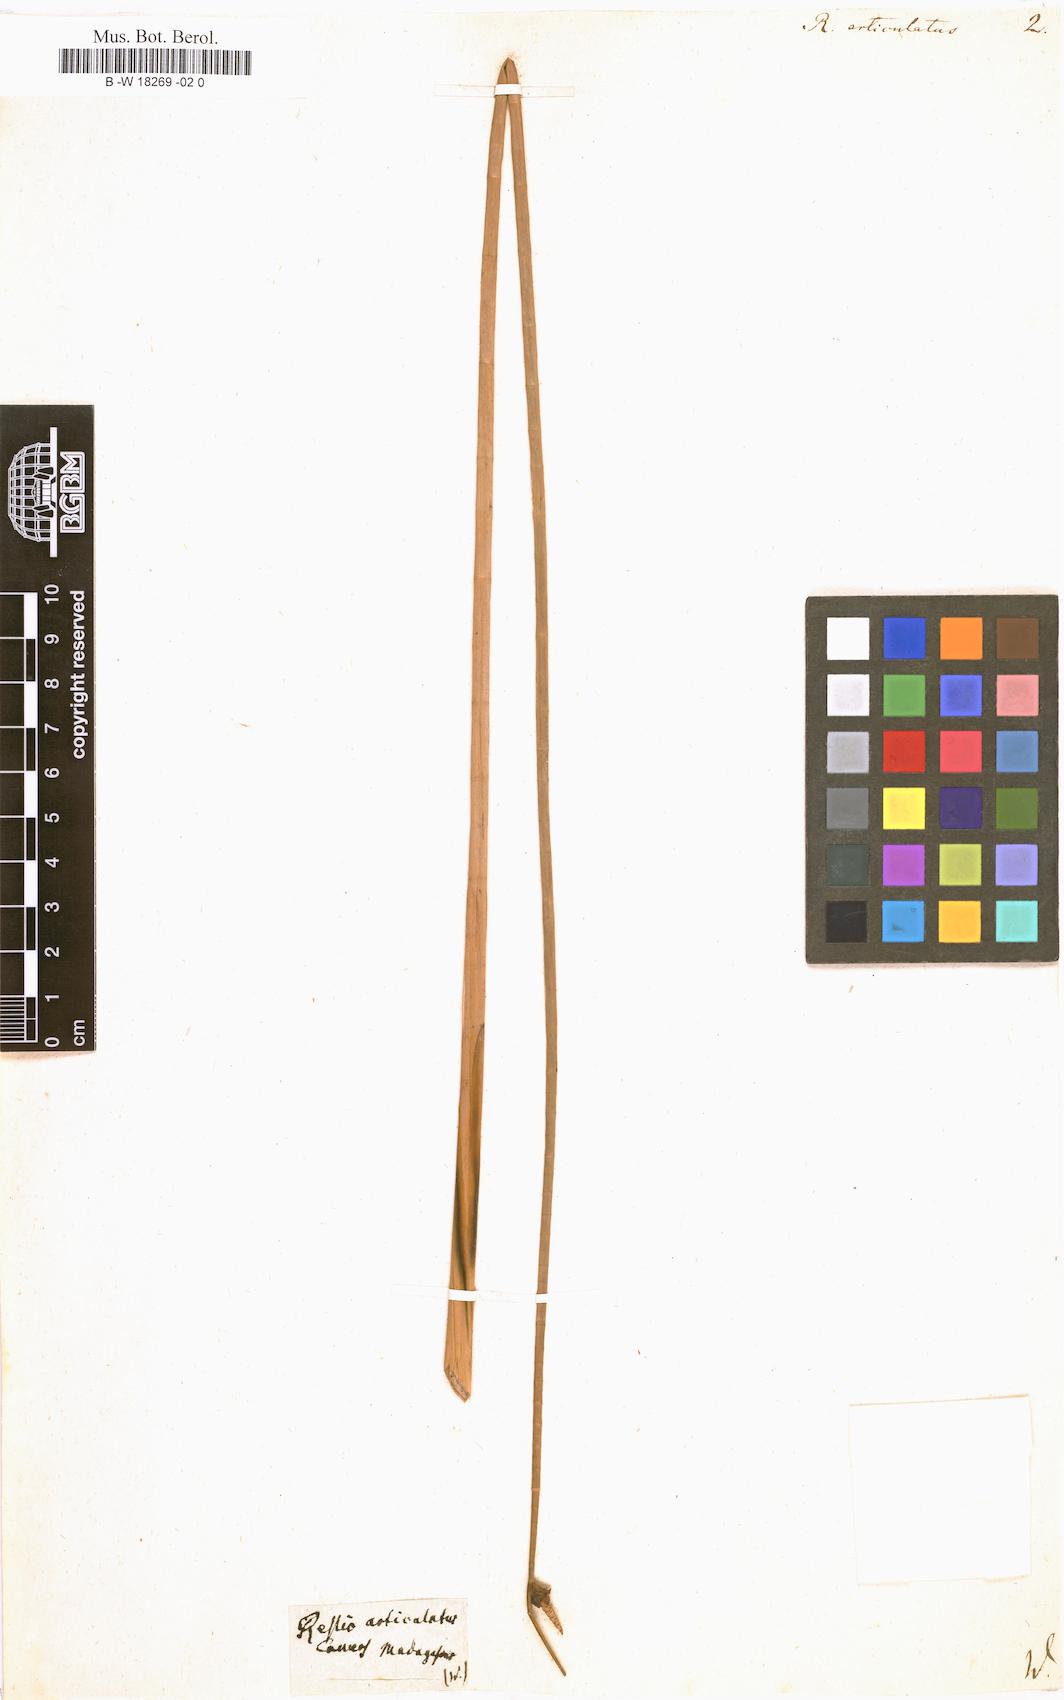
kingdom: Plantae
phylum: Tracheophyta
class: Liliopsida
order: Poales
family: Cyperaceae
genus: Lepironia
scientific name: Lepironia articulata
